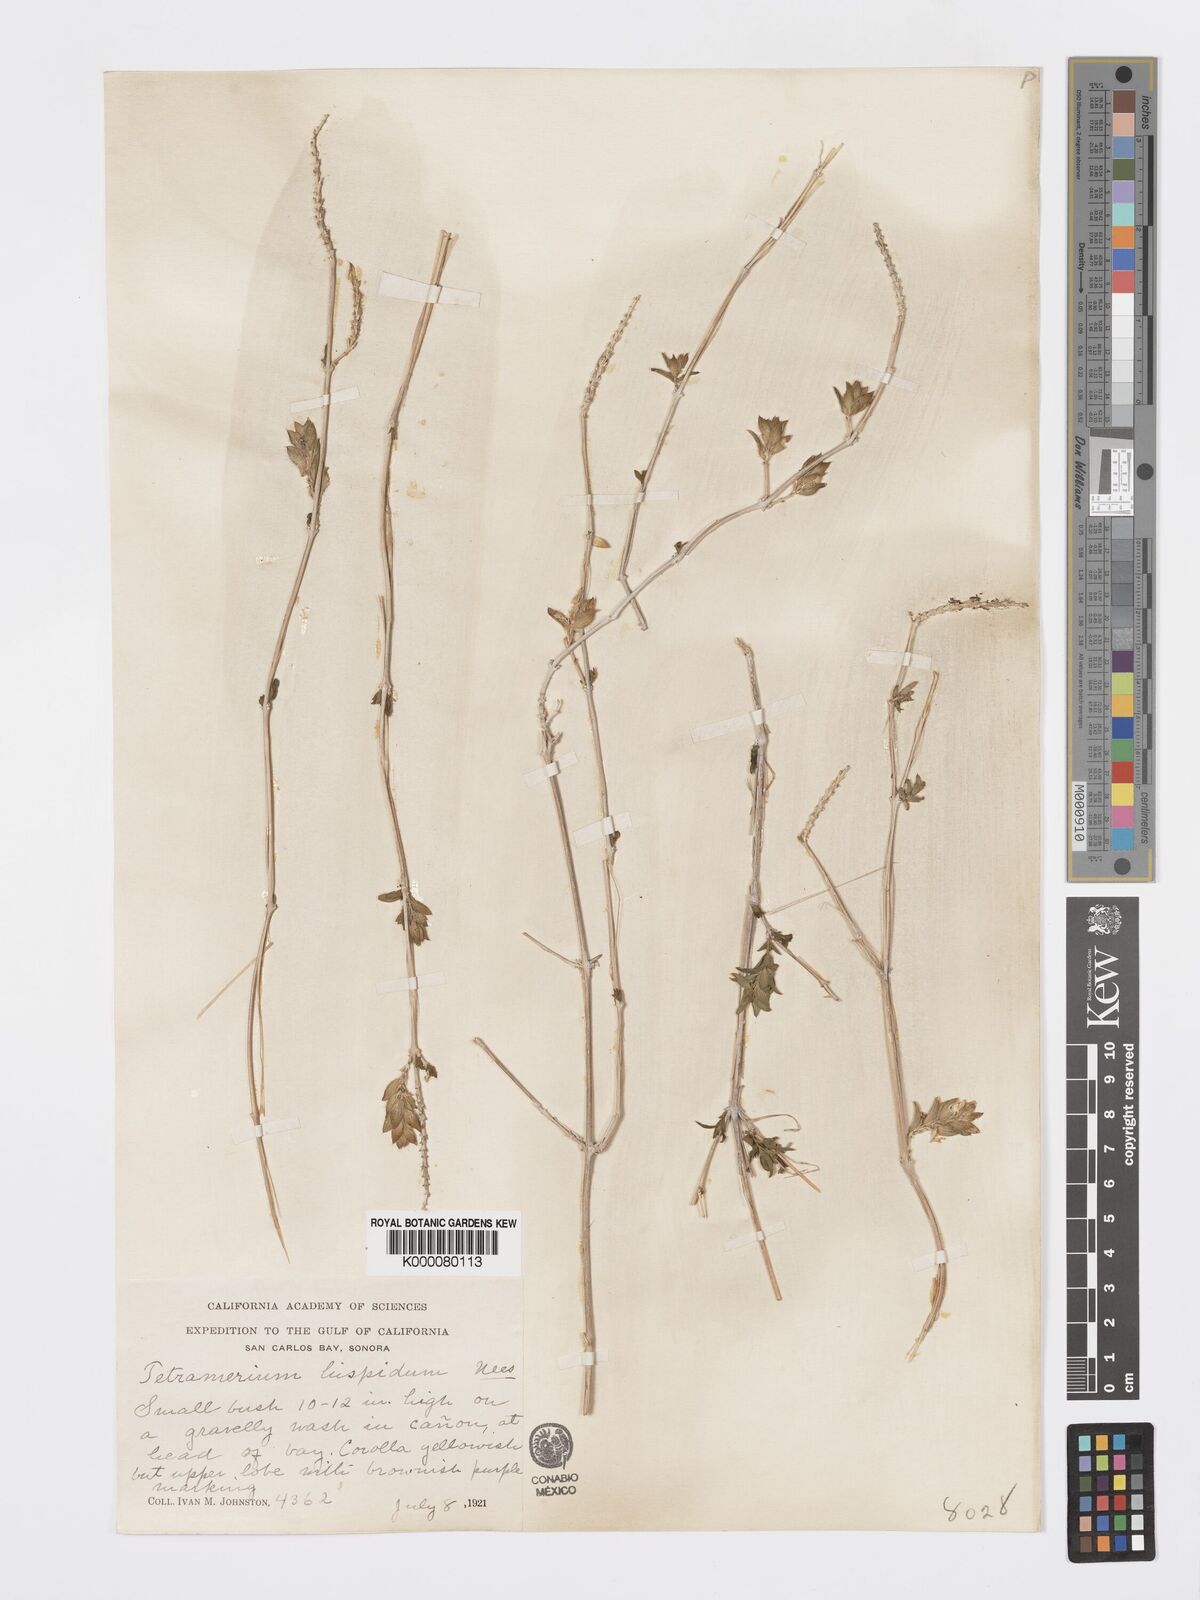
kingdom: Plantae
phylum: Tracheophyta
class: Magnoliopsida
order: Lamiales
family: Acanthaceae
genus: Tetramerium
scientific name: Tetramerium nervosum
